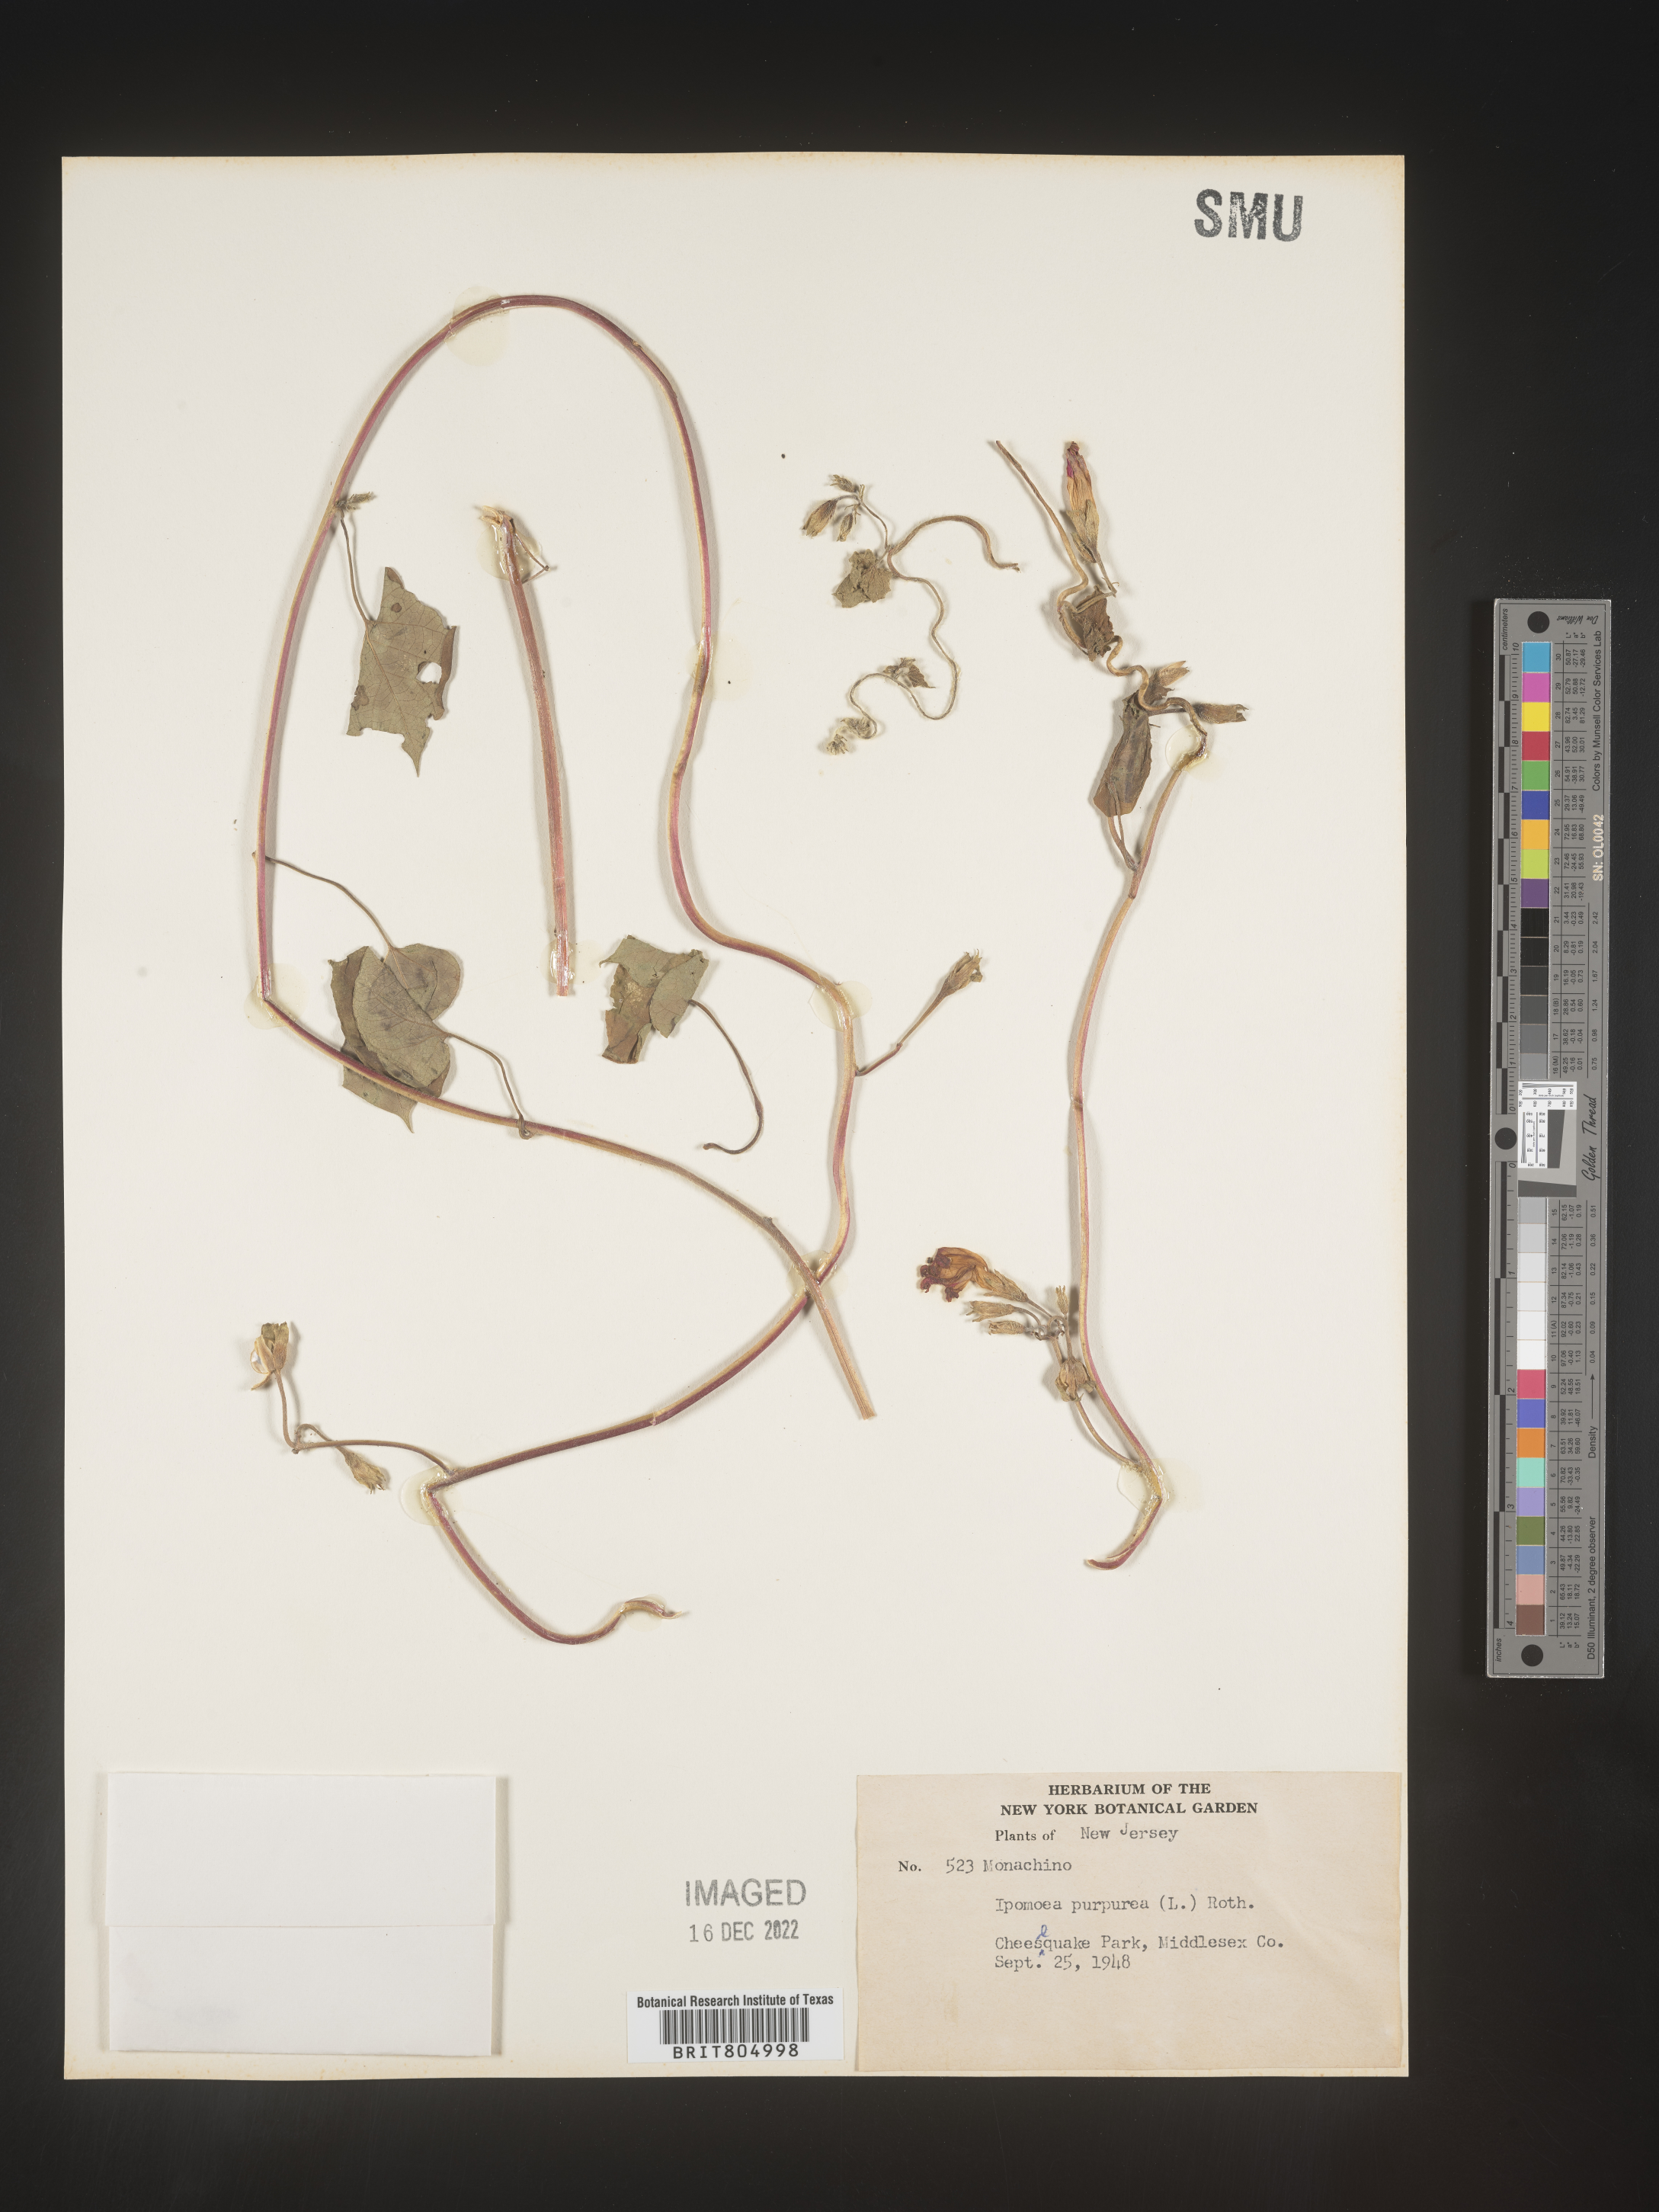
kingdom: Plantae
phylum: Tracheophyta
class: Magnoliopsida
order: Solanales
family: Convolvulaceae
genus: Ipomoea
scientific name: Ipomoea purpurea
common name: Common morning-glory
